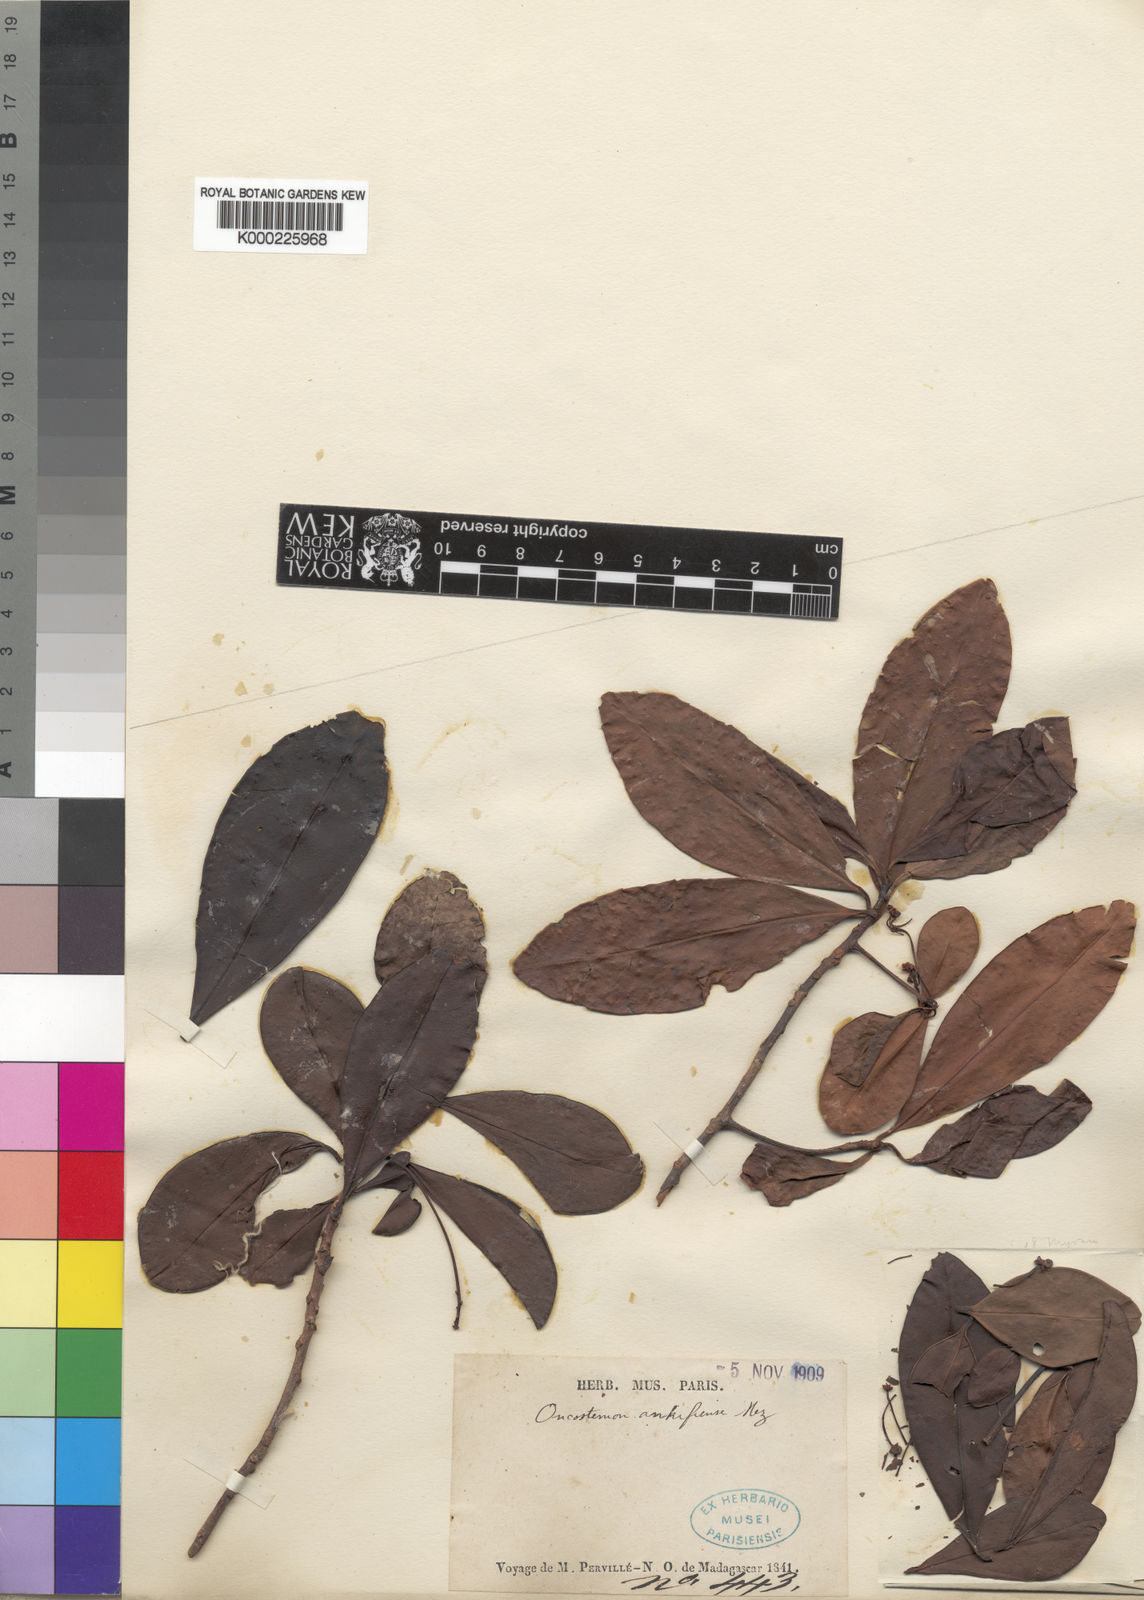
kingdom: Plantae
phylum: Tracheophyta
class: Magnoliopsida
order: Ericales
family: Primulaceae
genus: Oncostemum
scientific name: Oncostemum ankifiense
